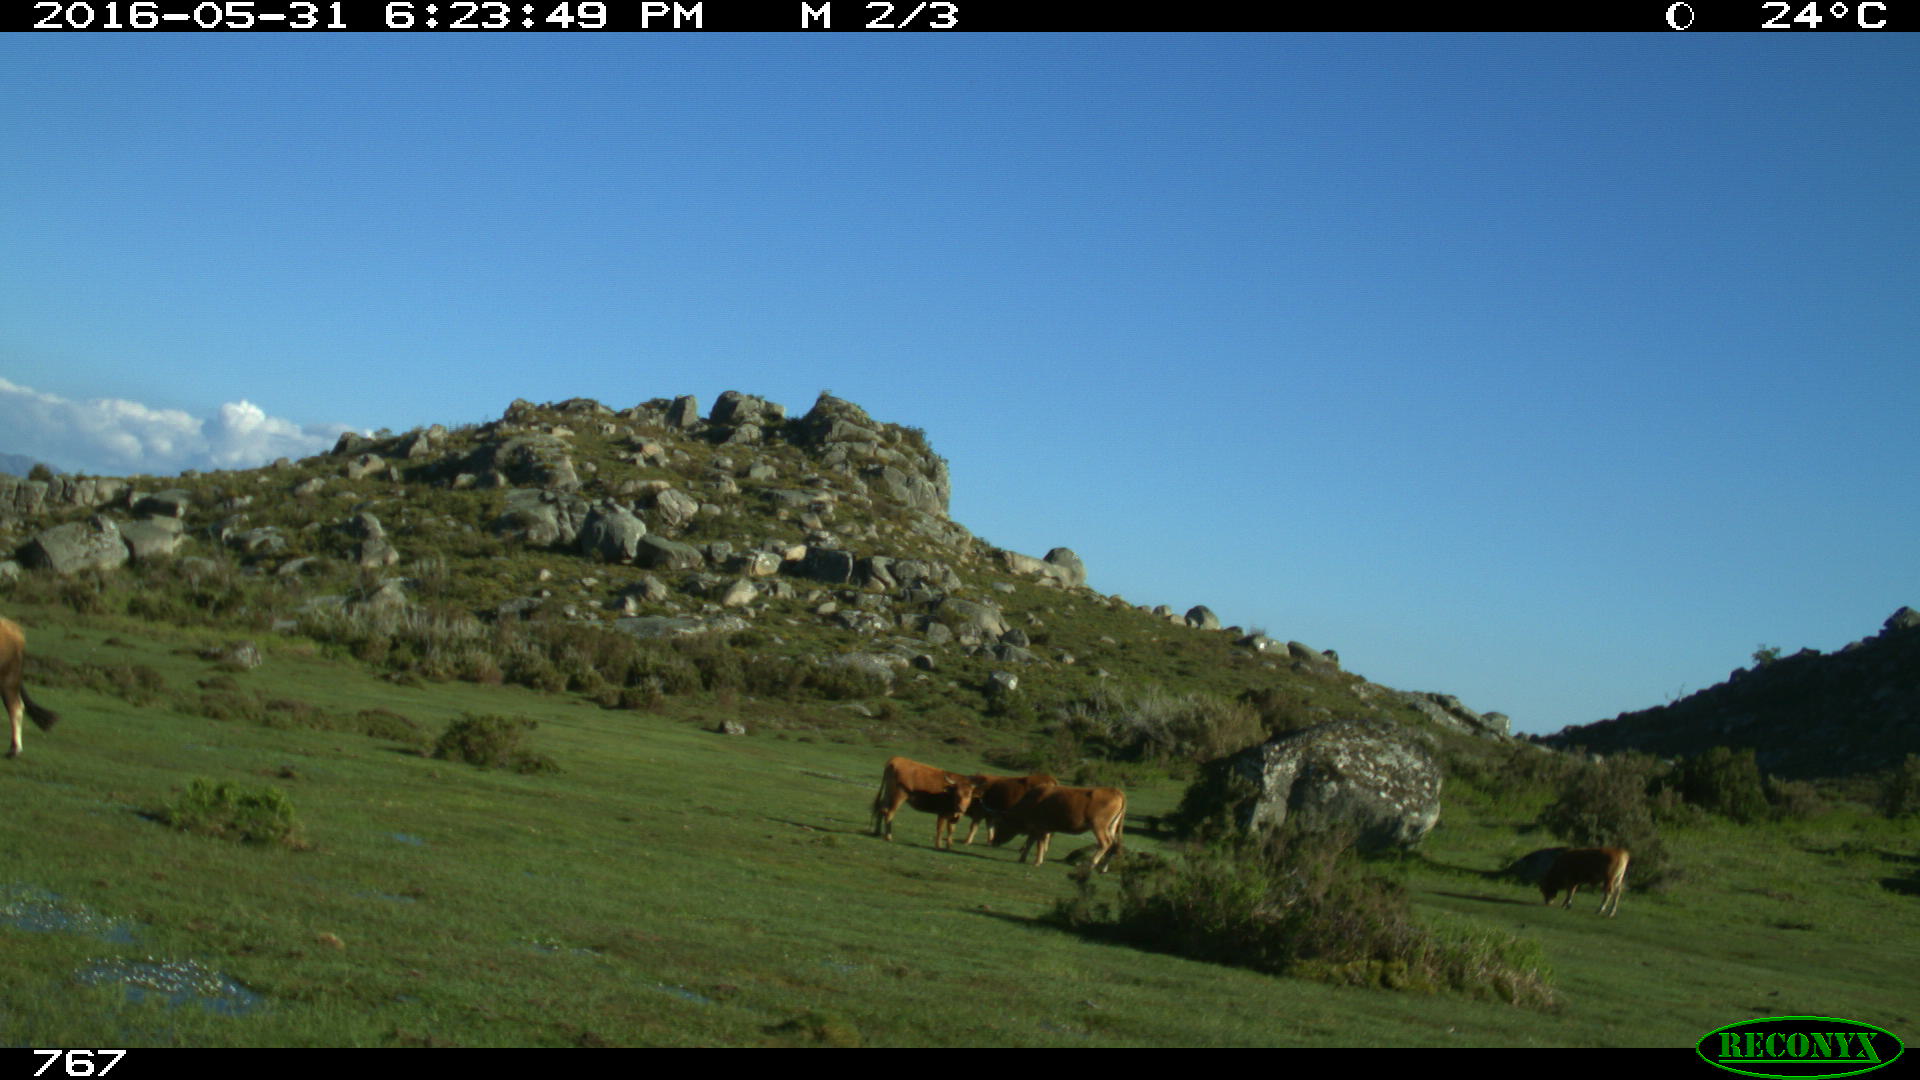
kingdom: Animalia
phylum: Chordata
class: Mammalia
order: Artiodactyla
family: Bovidae
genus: Bos
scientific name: Bos taurus
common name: Domesticated cattle
